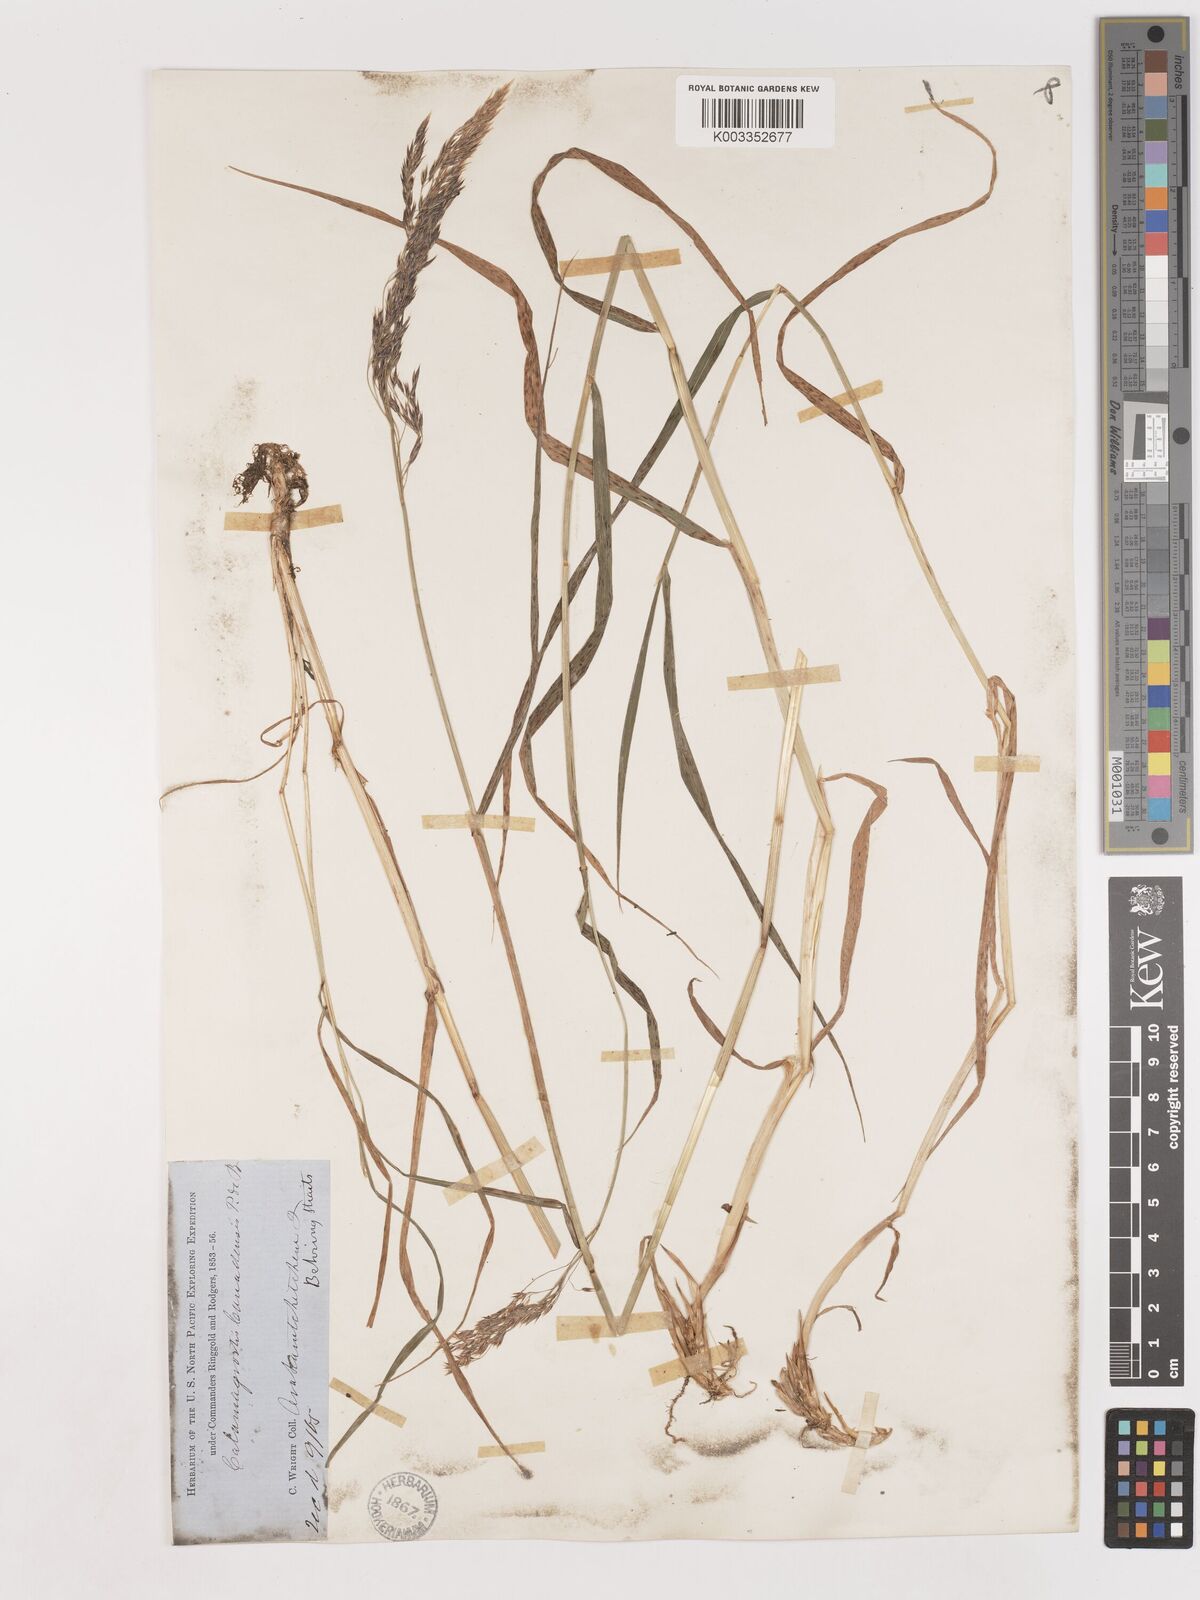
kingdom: Plantae
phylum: Tracheophyta
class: Liliopsida
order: Poales
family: Poaceae
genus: Calamagrostis
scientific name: Calamagrostis canadensis
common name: Canada bluejoint
